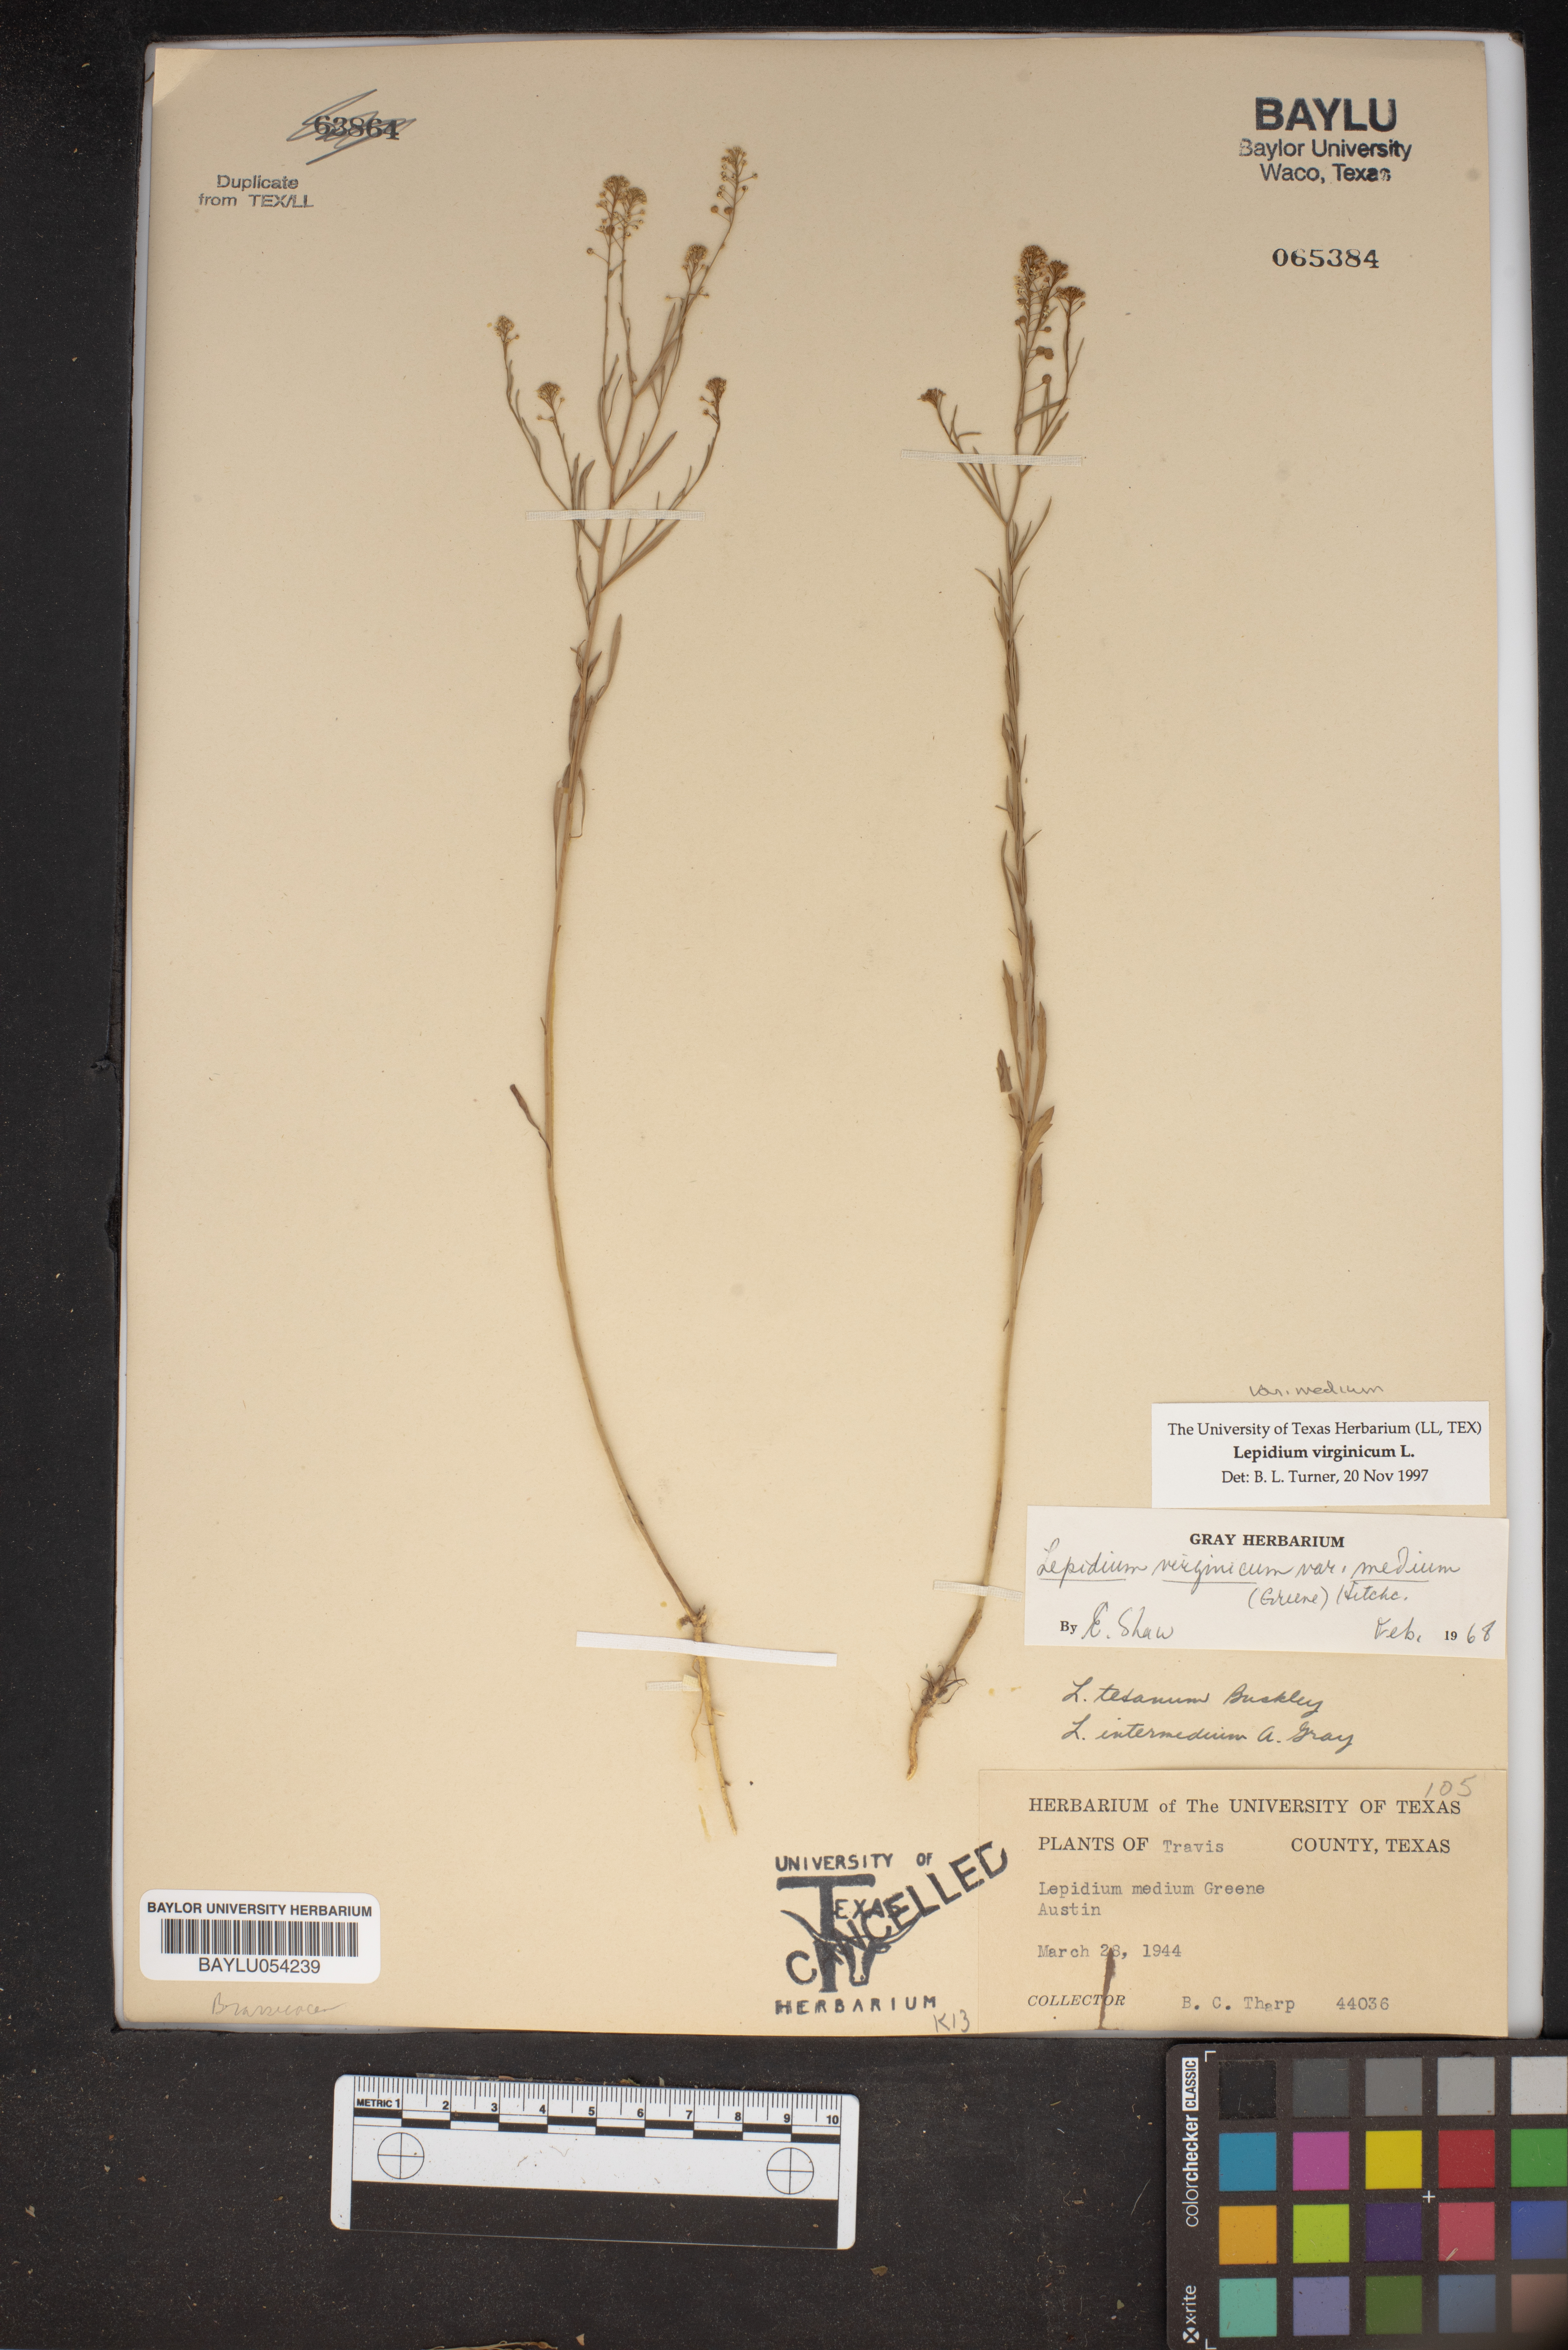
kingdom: Plantae
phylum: Tracheophyta
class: Magnoliopsida
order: Brassicales
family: Brassicaceae
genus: Lepidium
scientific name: Lepidium virginicum
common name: Least pepperwort
